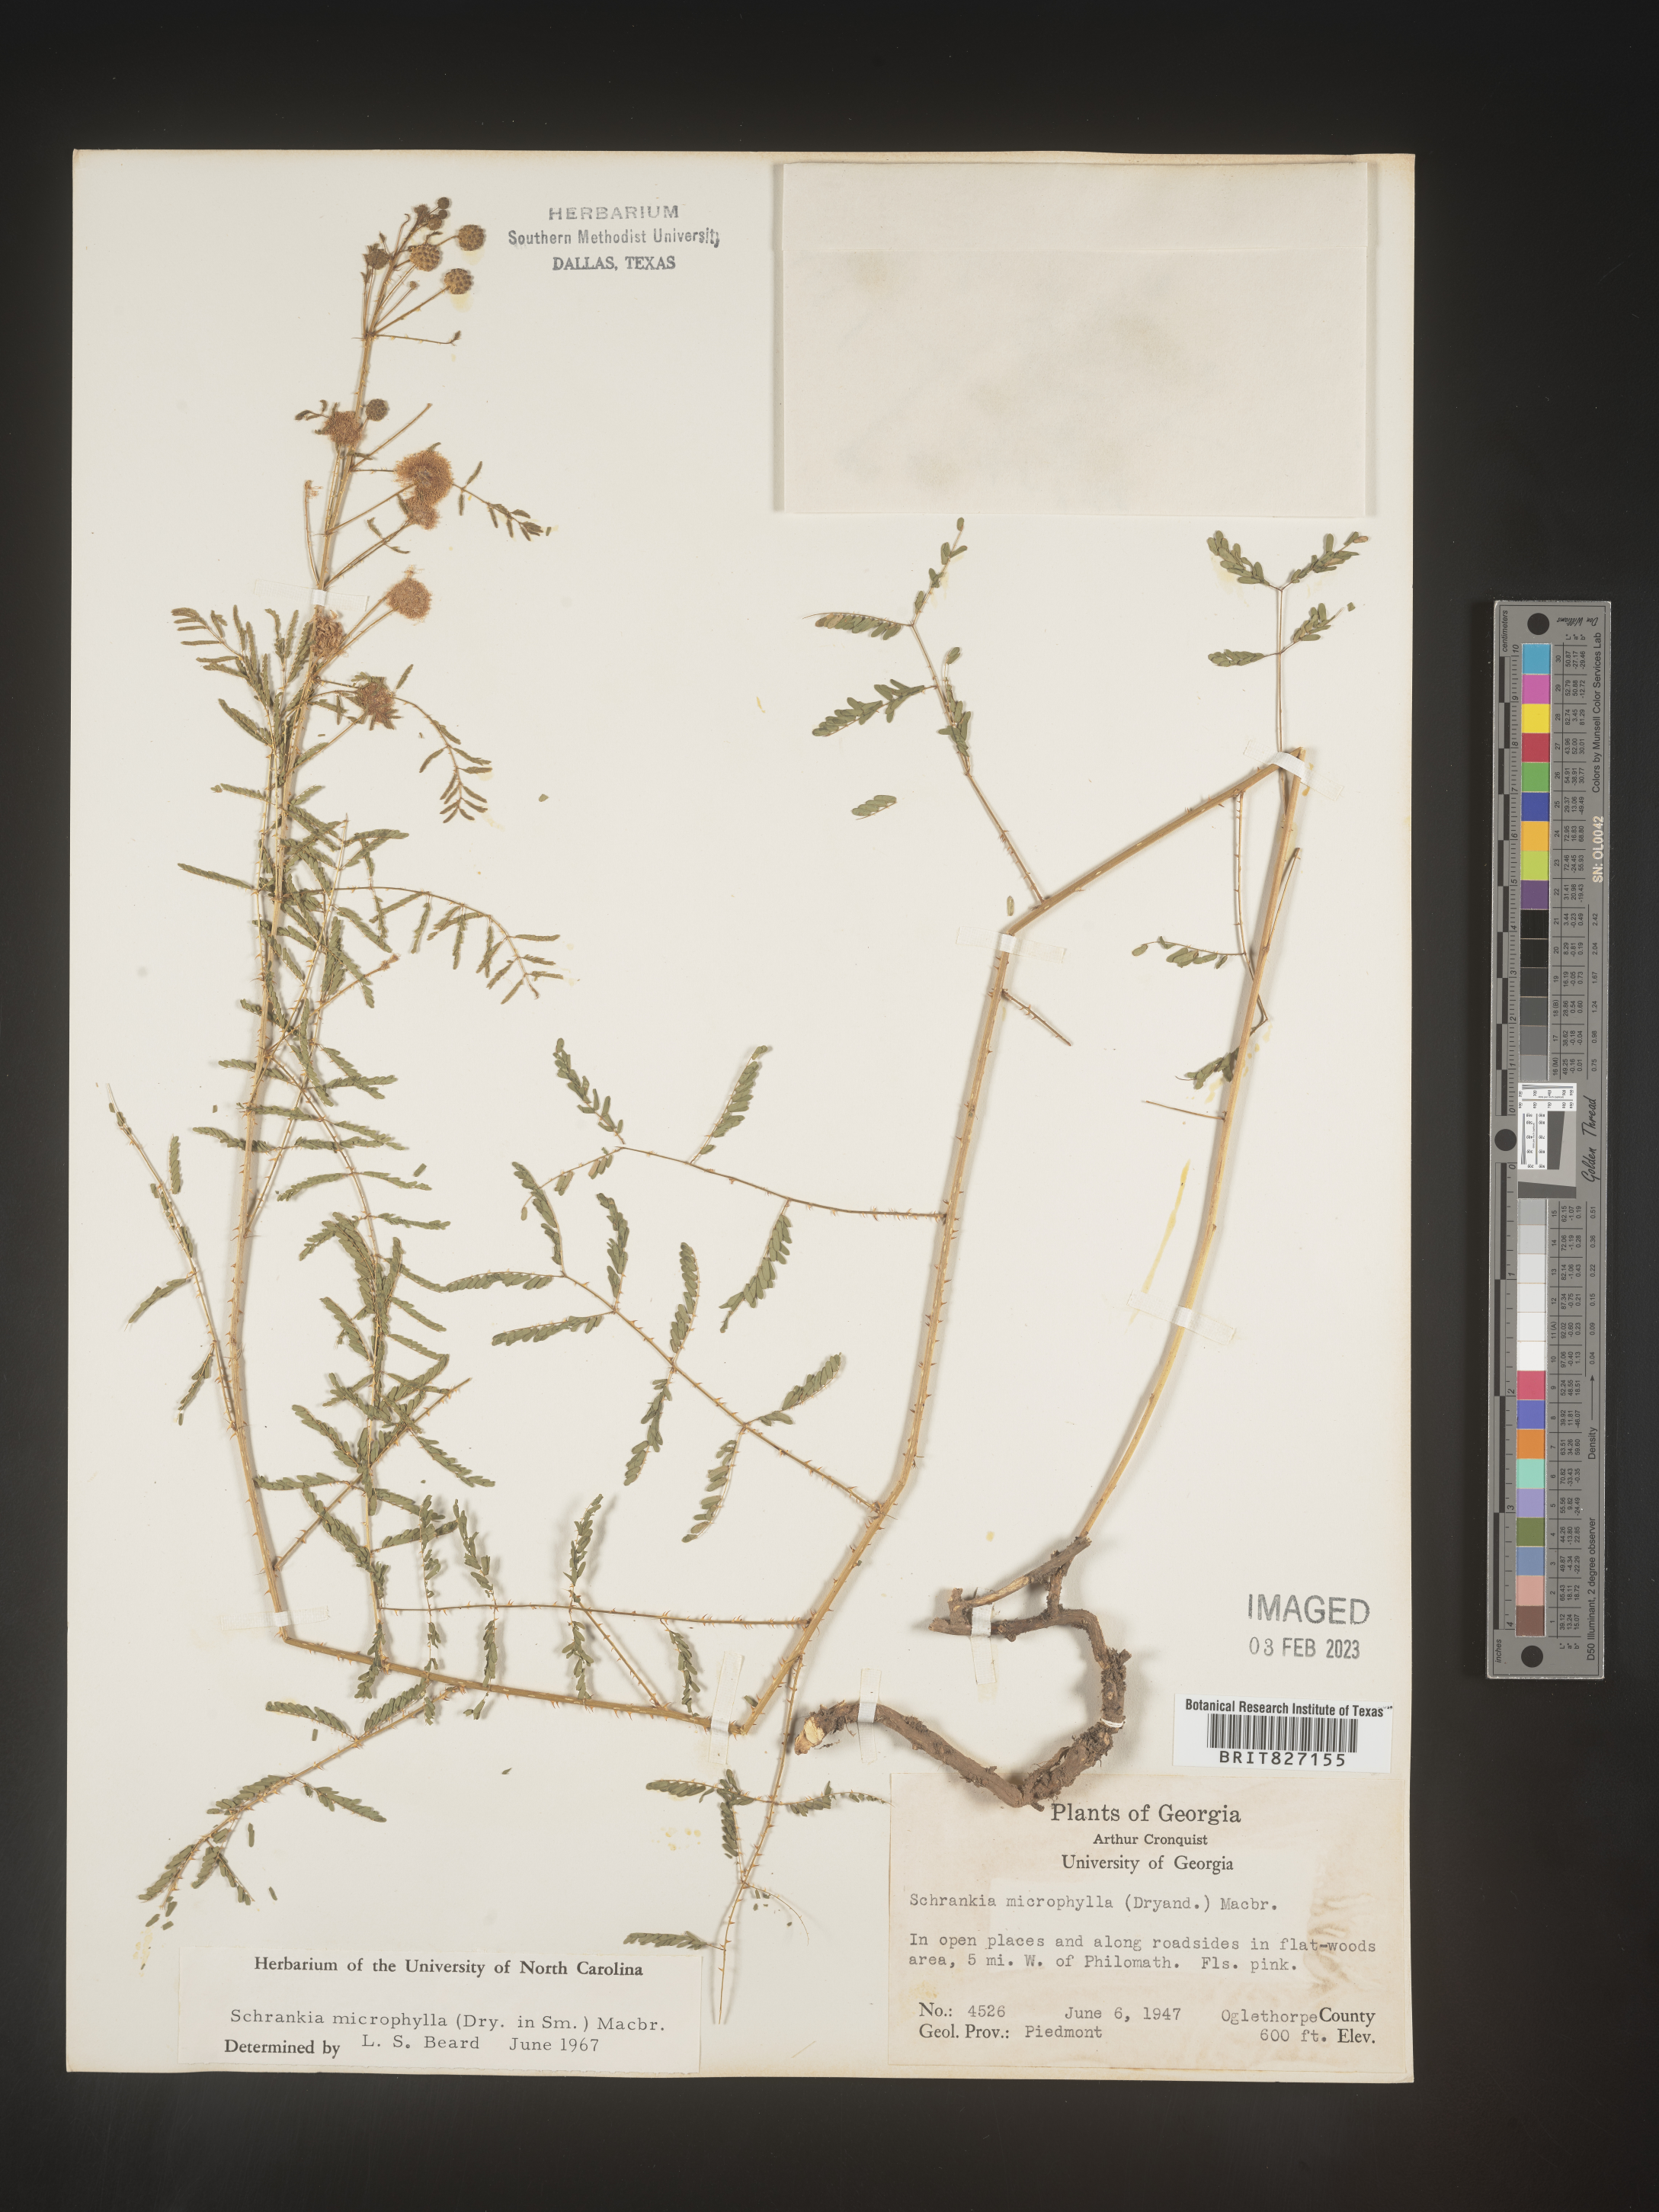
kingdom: Plantae
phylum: Tracheophyta
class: Magnoliopsida
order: Fabales
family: Fabaceae
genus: Mimosa
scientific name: Mimosa quadrivalvis
